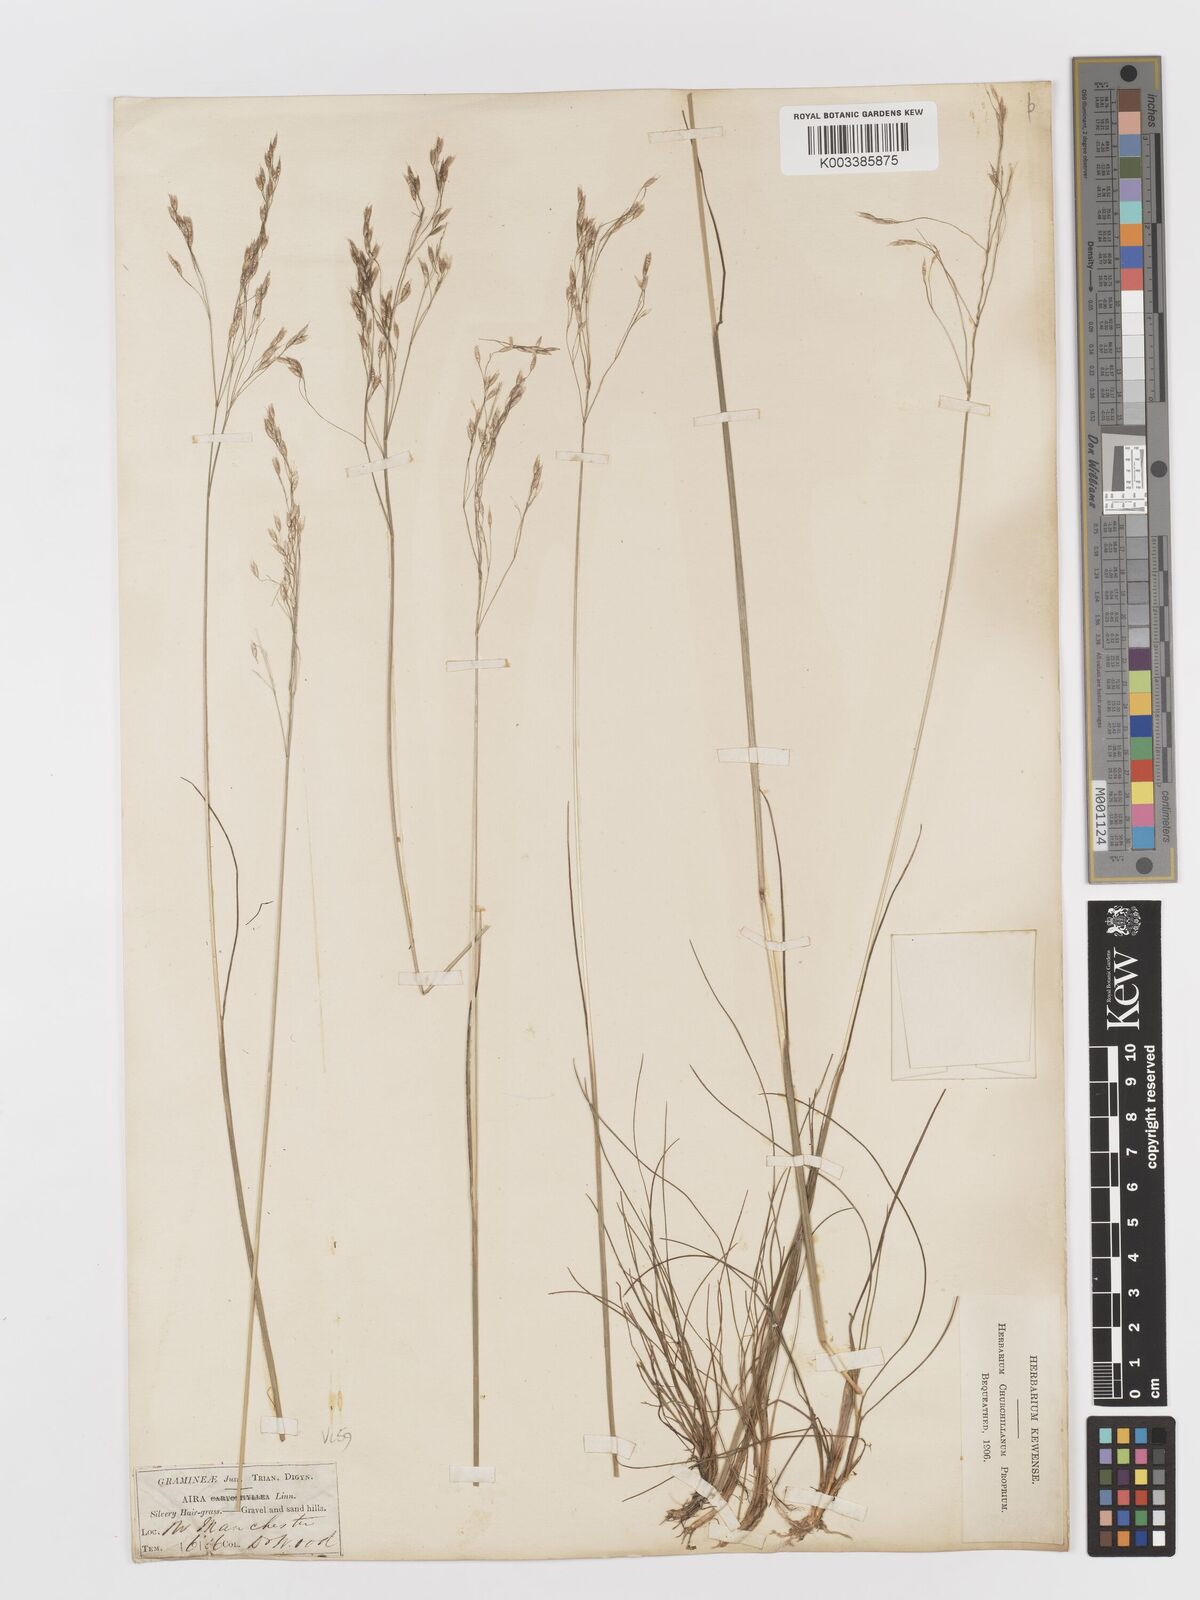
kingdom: Plantae
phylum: Tracheophyta
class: Liliopsida
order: Poales
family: Poaceae
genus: Avenella
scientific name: Avenella flexuosa
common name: Wavy hairgrass
